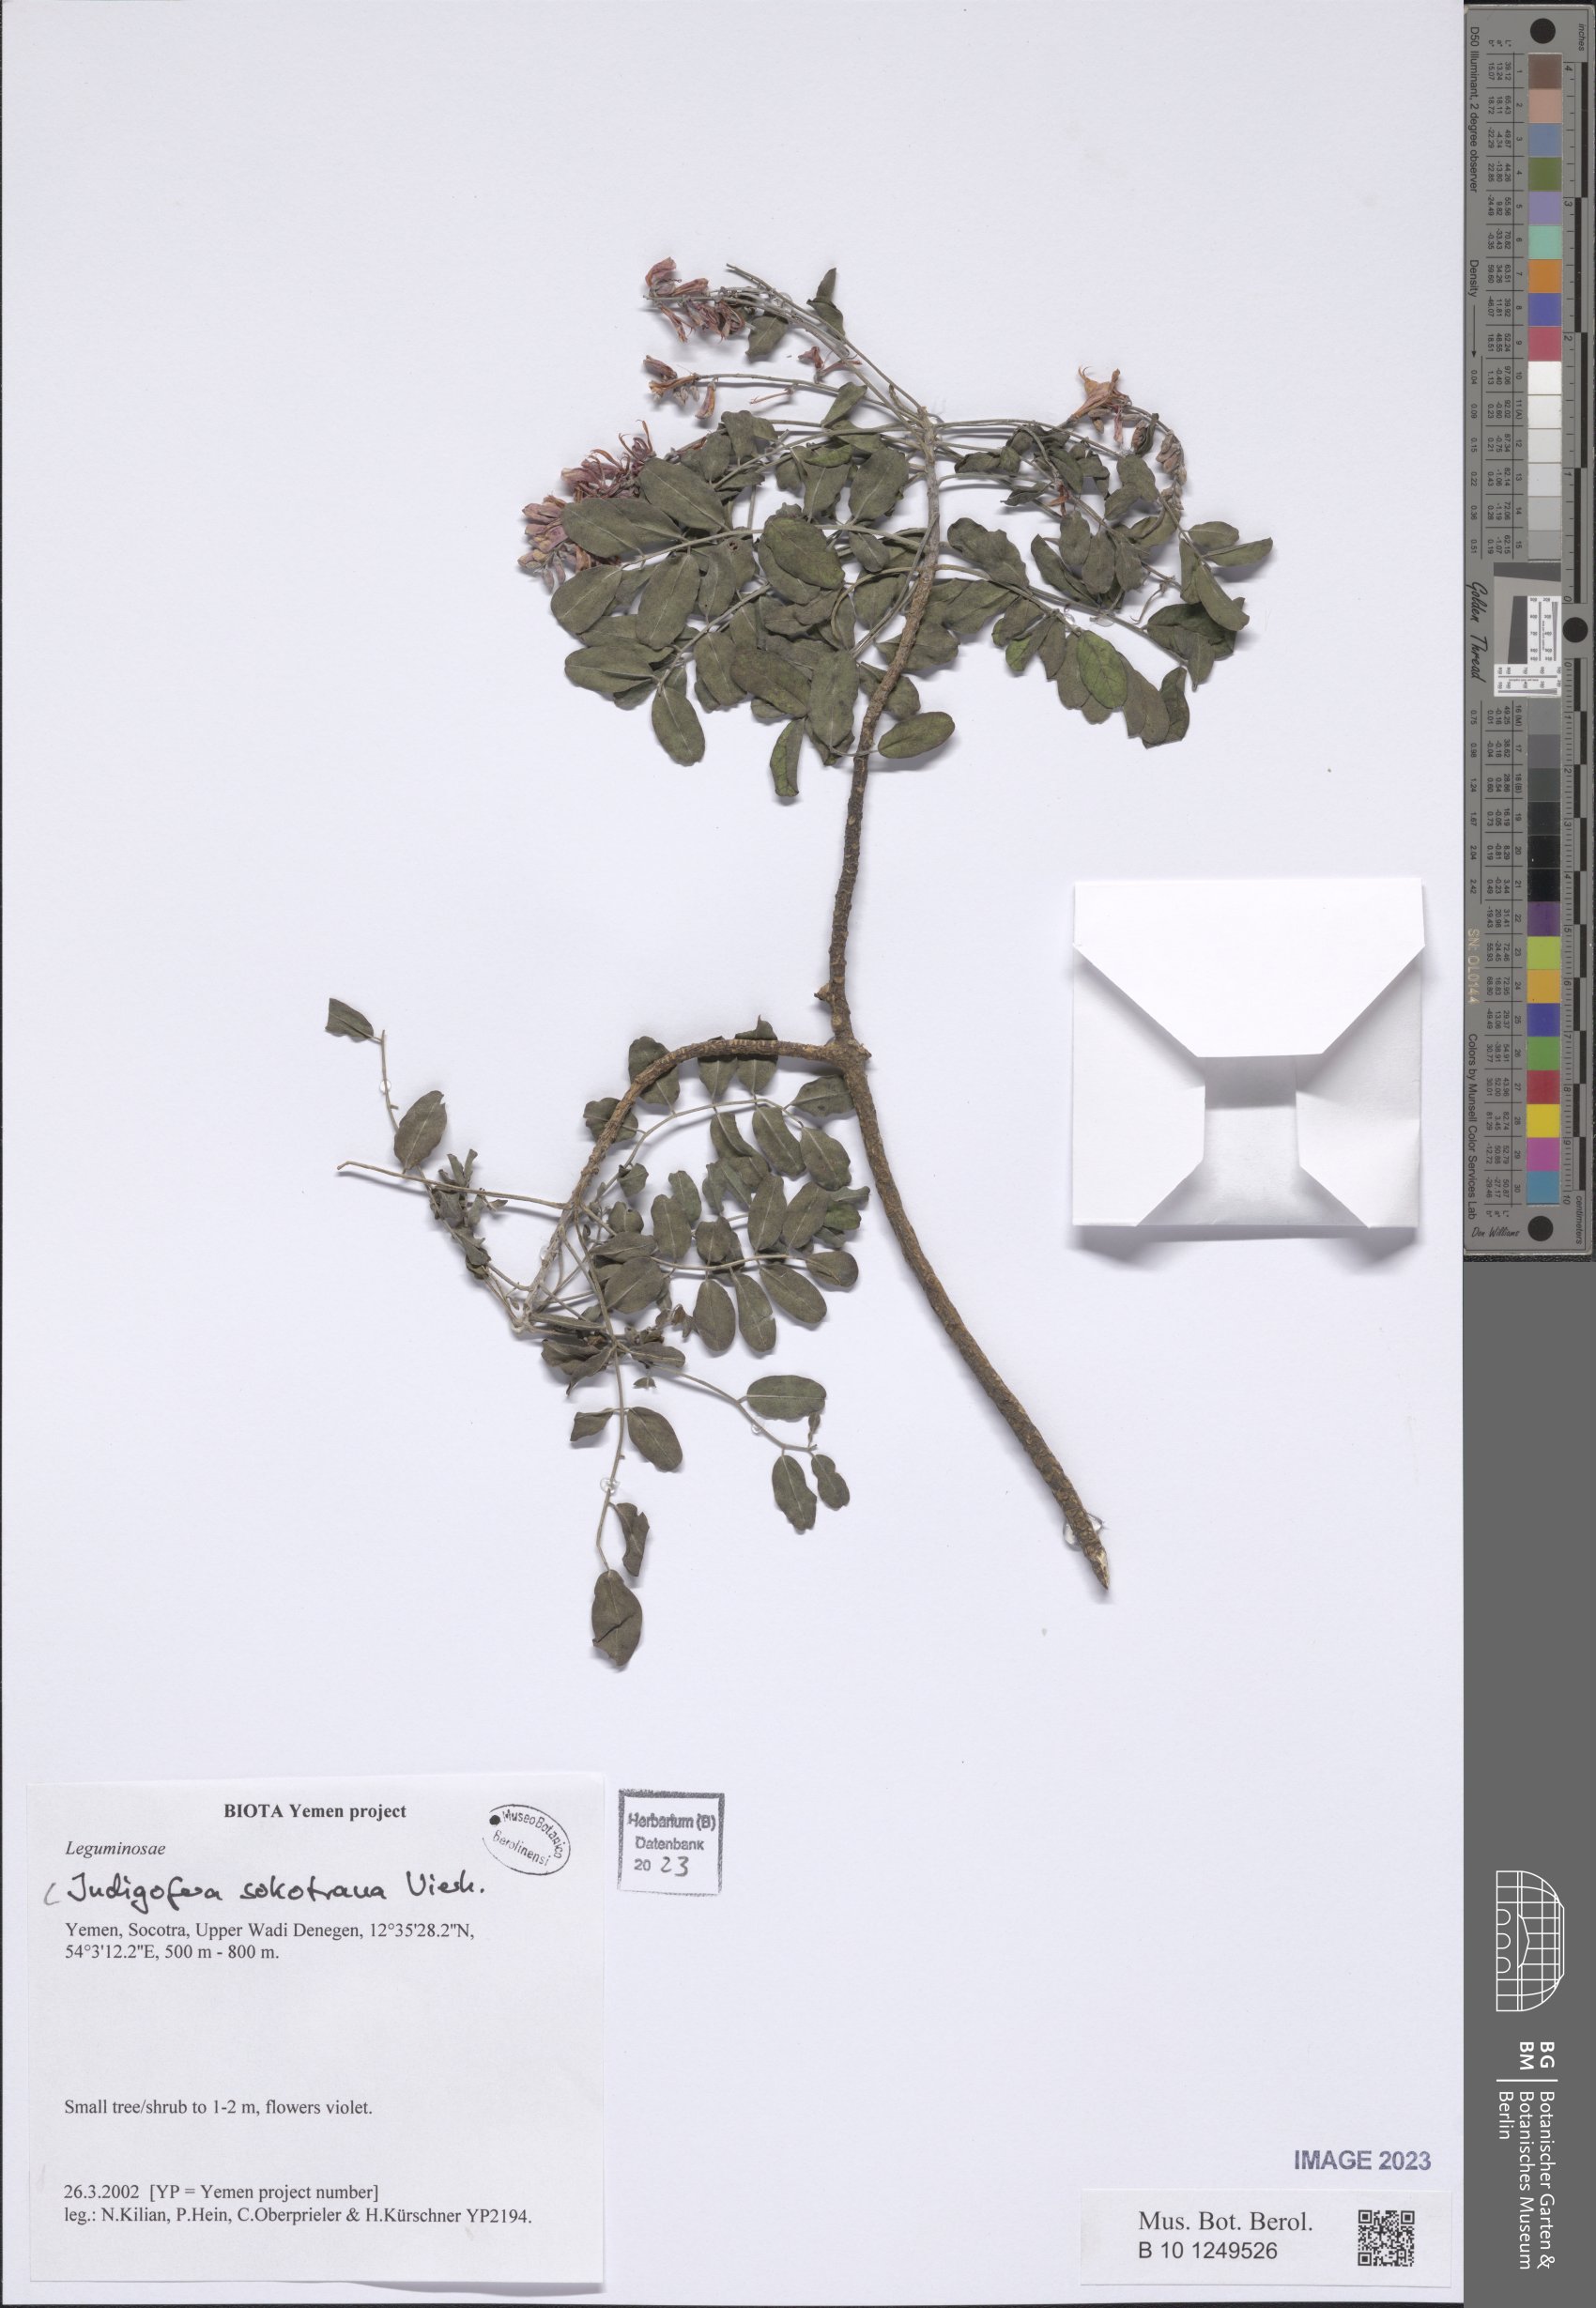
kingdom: Plantae
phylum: Tracheophyta
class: Magnoliopsida
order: Fabales
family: Fabaceae
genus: Indigofera
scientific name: Indigofera sokotrana
